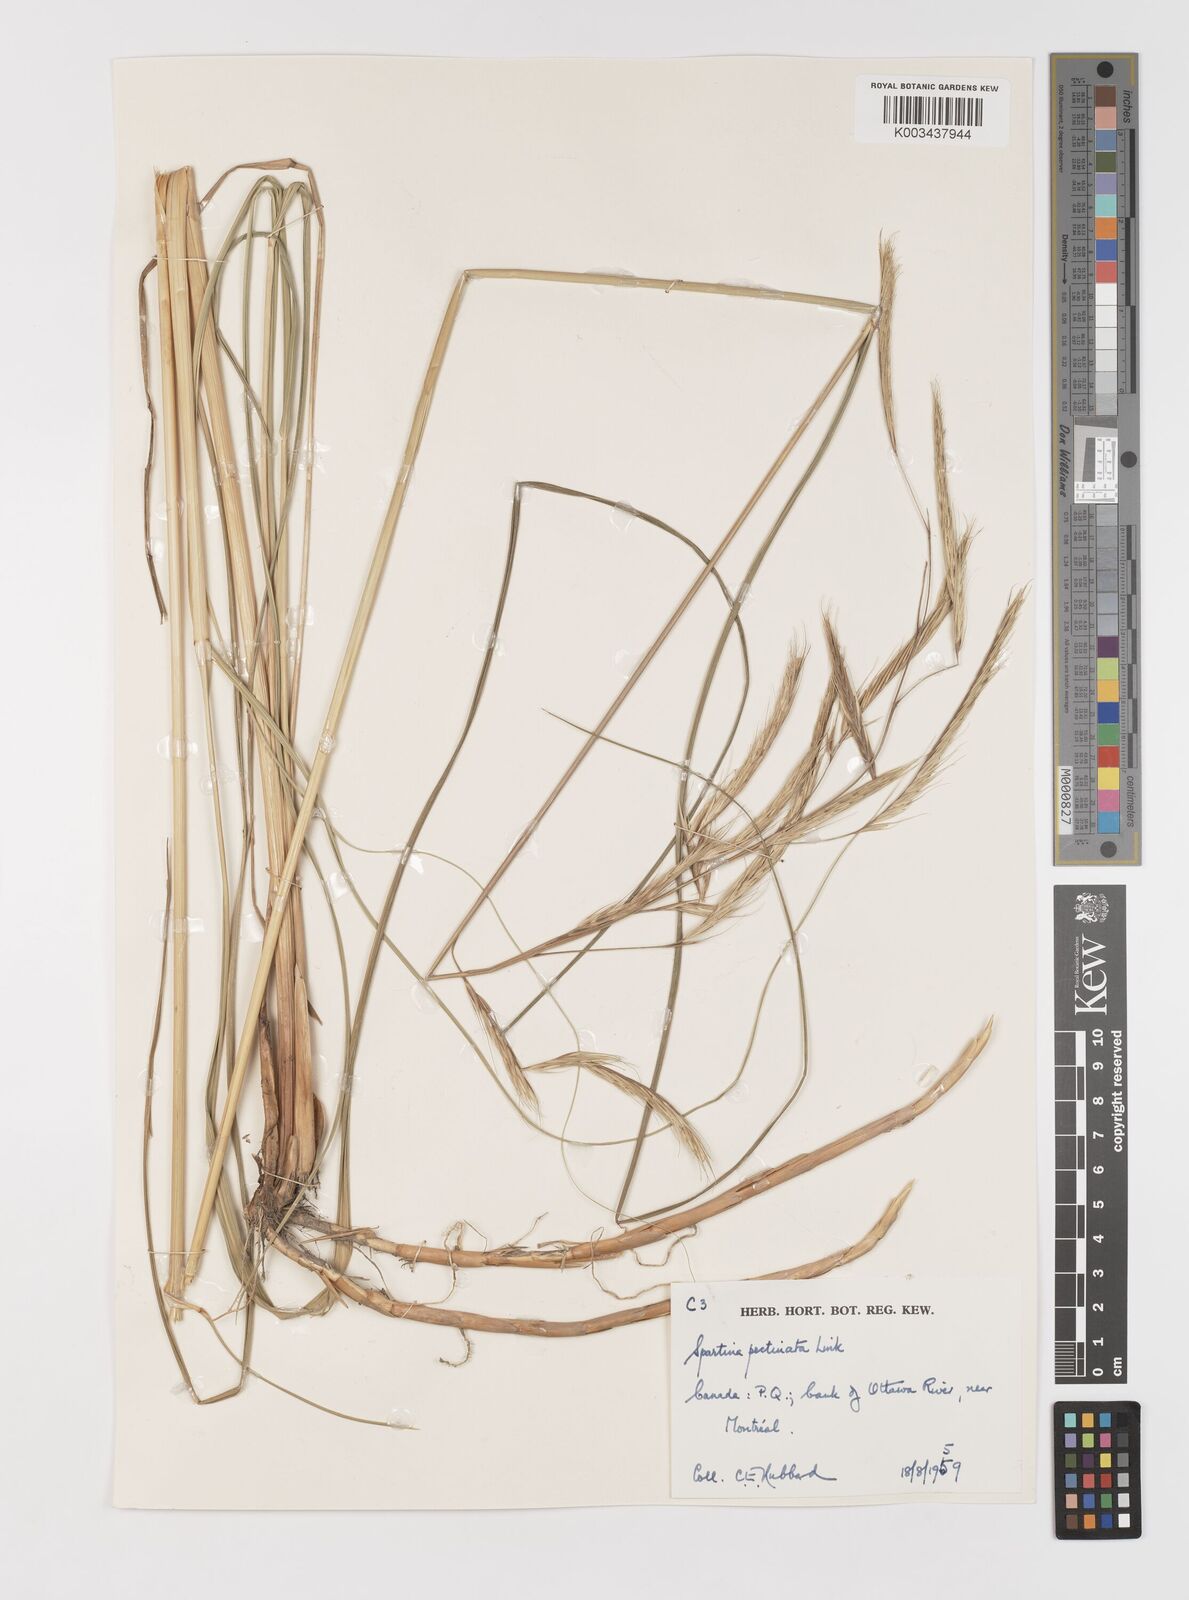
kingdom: Plantae
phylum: Tracheophyta
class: Liliopsida
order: Poales
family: Poaceae
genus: Sporobolus
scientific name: Sporobolus michauxianus
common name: Freshwater cordgrass
